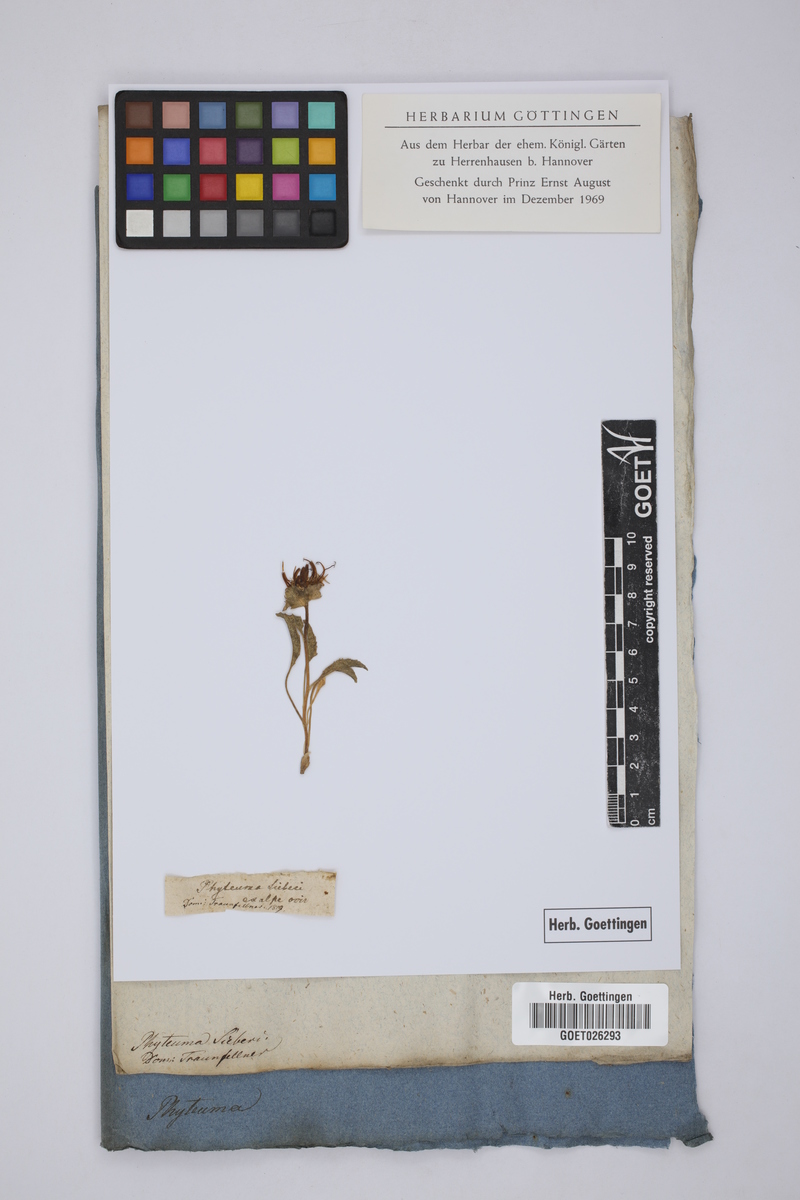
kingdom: Plantae
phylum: Tracheophyta
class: Magnoliopsida
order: Asterales
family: Campanulaceae
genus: Phyteuma
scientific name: Phyteuma sieberi
